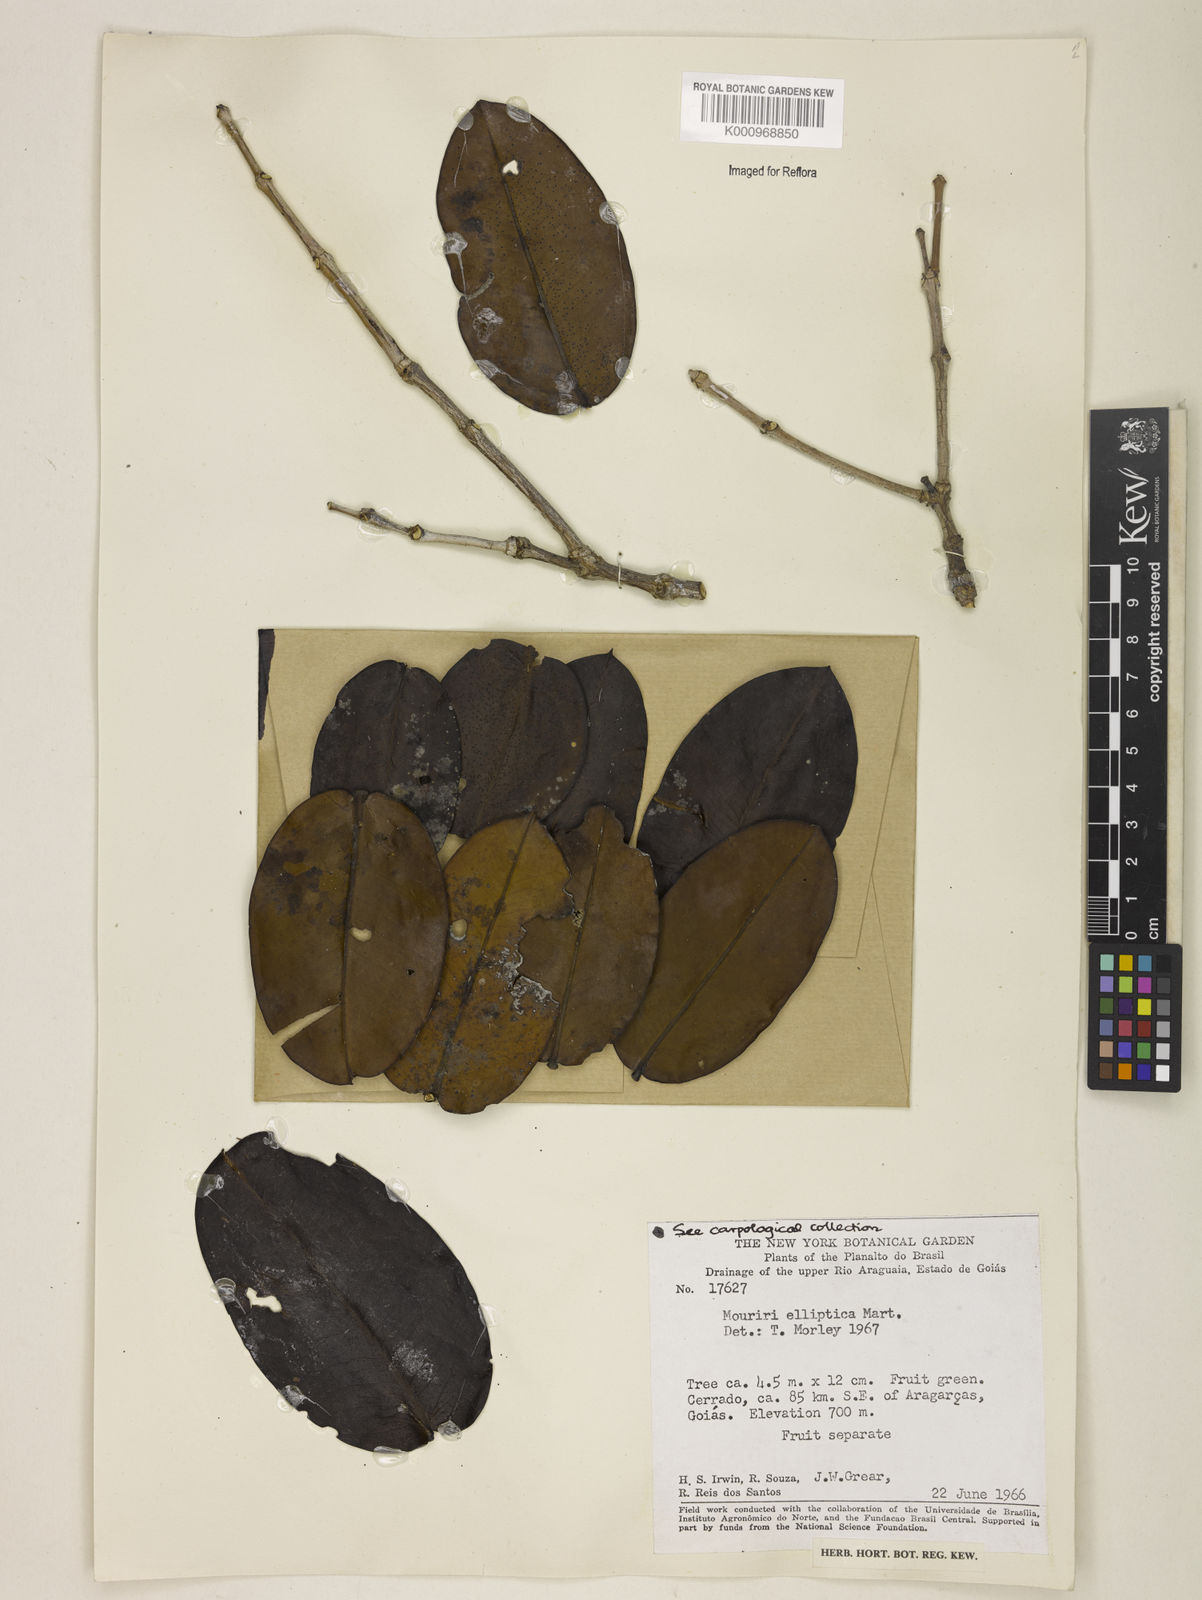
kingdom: Plantae
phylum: Tracheophyta
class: Magnoliopsida
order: Myrtales
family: Melastomataceae
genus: Mouriri
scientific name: Mouriri elliptica
